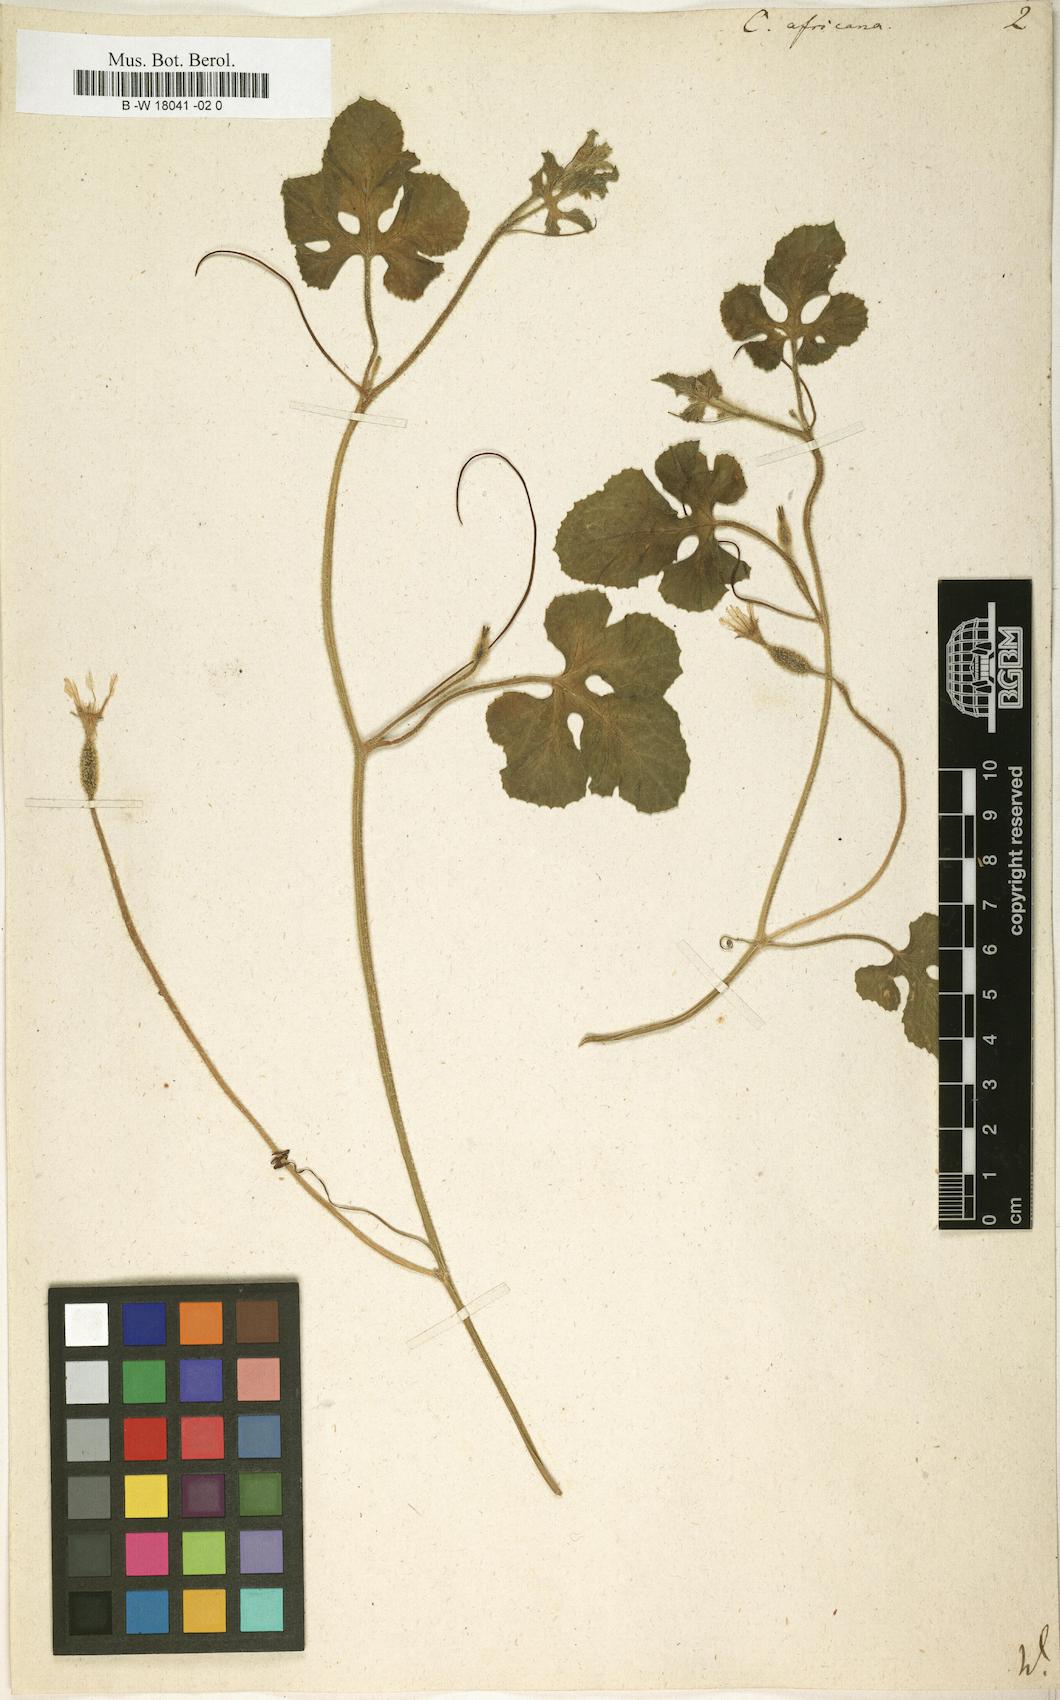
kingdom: Plantae
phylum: Tracheophyta
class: Magnoliopsida
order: Cucurbitales
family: Cucurbitaceae
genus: Cucumis
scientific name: Cucumis africanus
